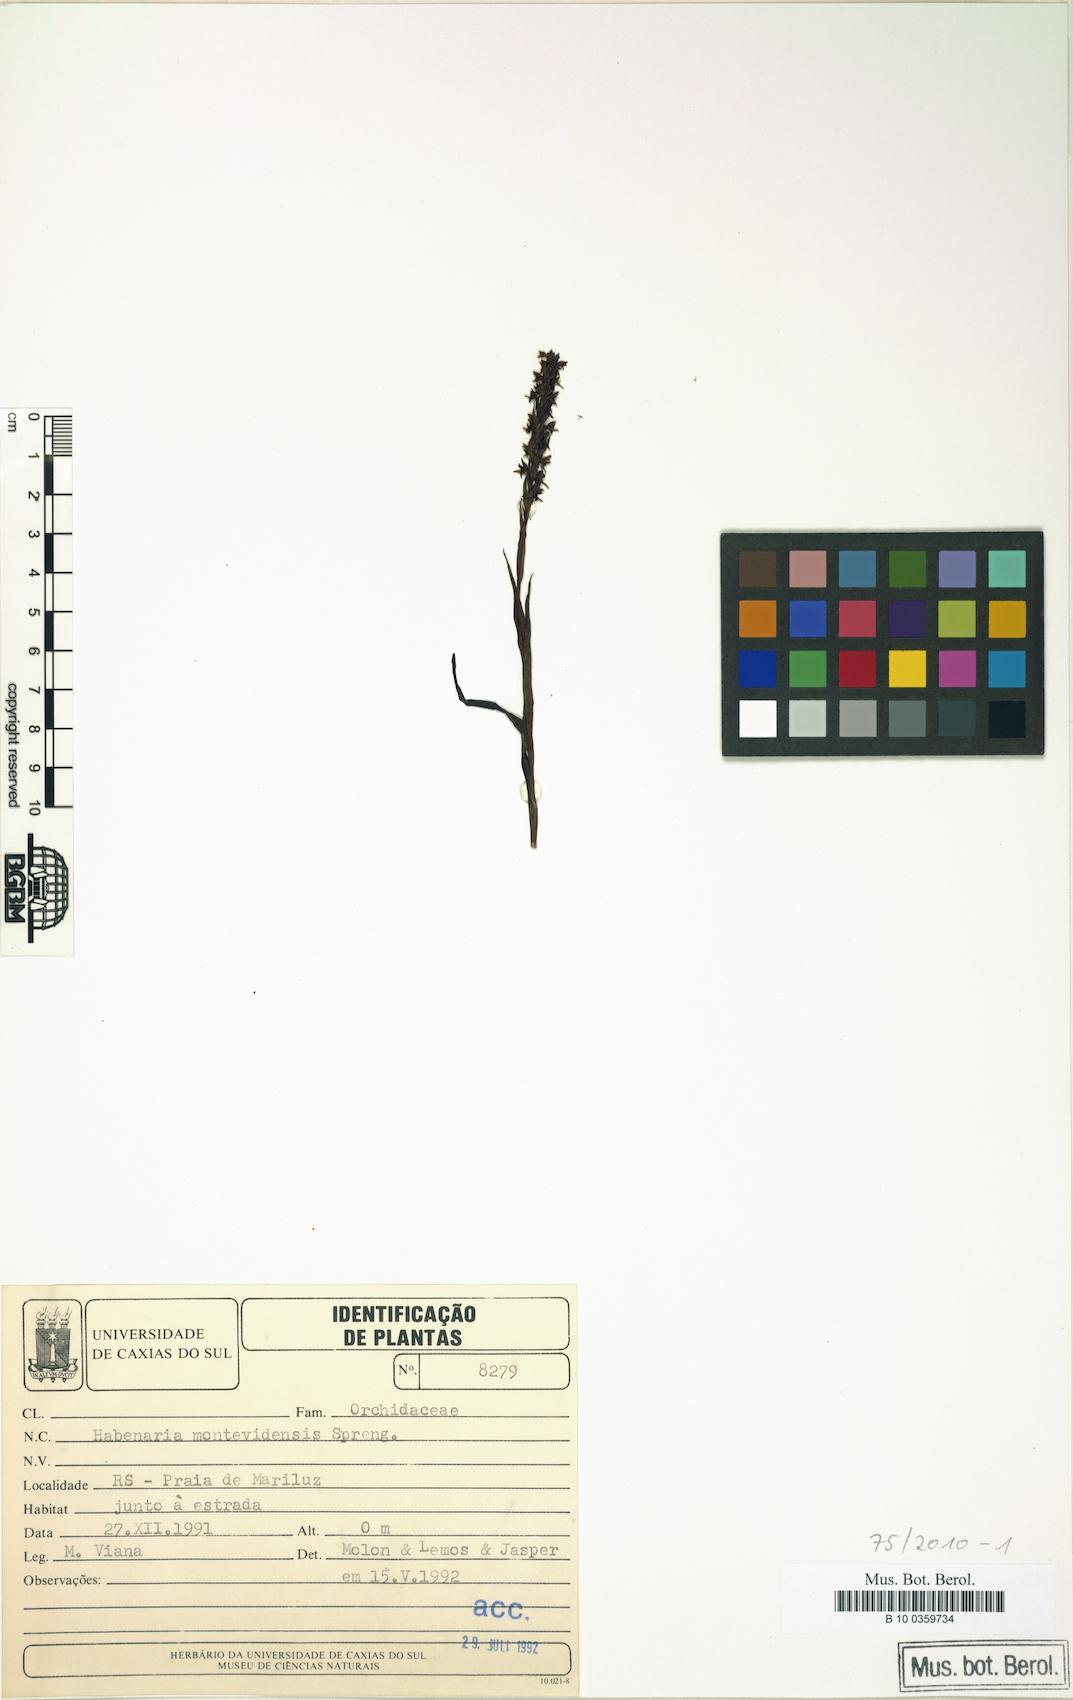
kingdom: Plantae
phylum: Tracheophyta
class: Liliopsida
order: Asparagales
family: Orchidaceae
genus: Habenaria
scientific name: Habenaria parviflora
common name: Small flowered habenaria
